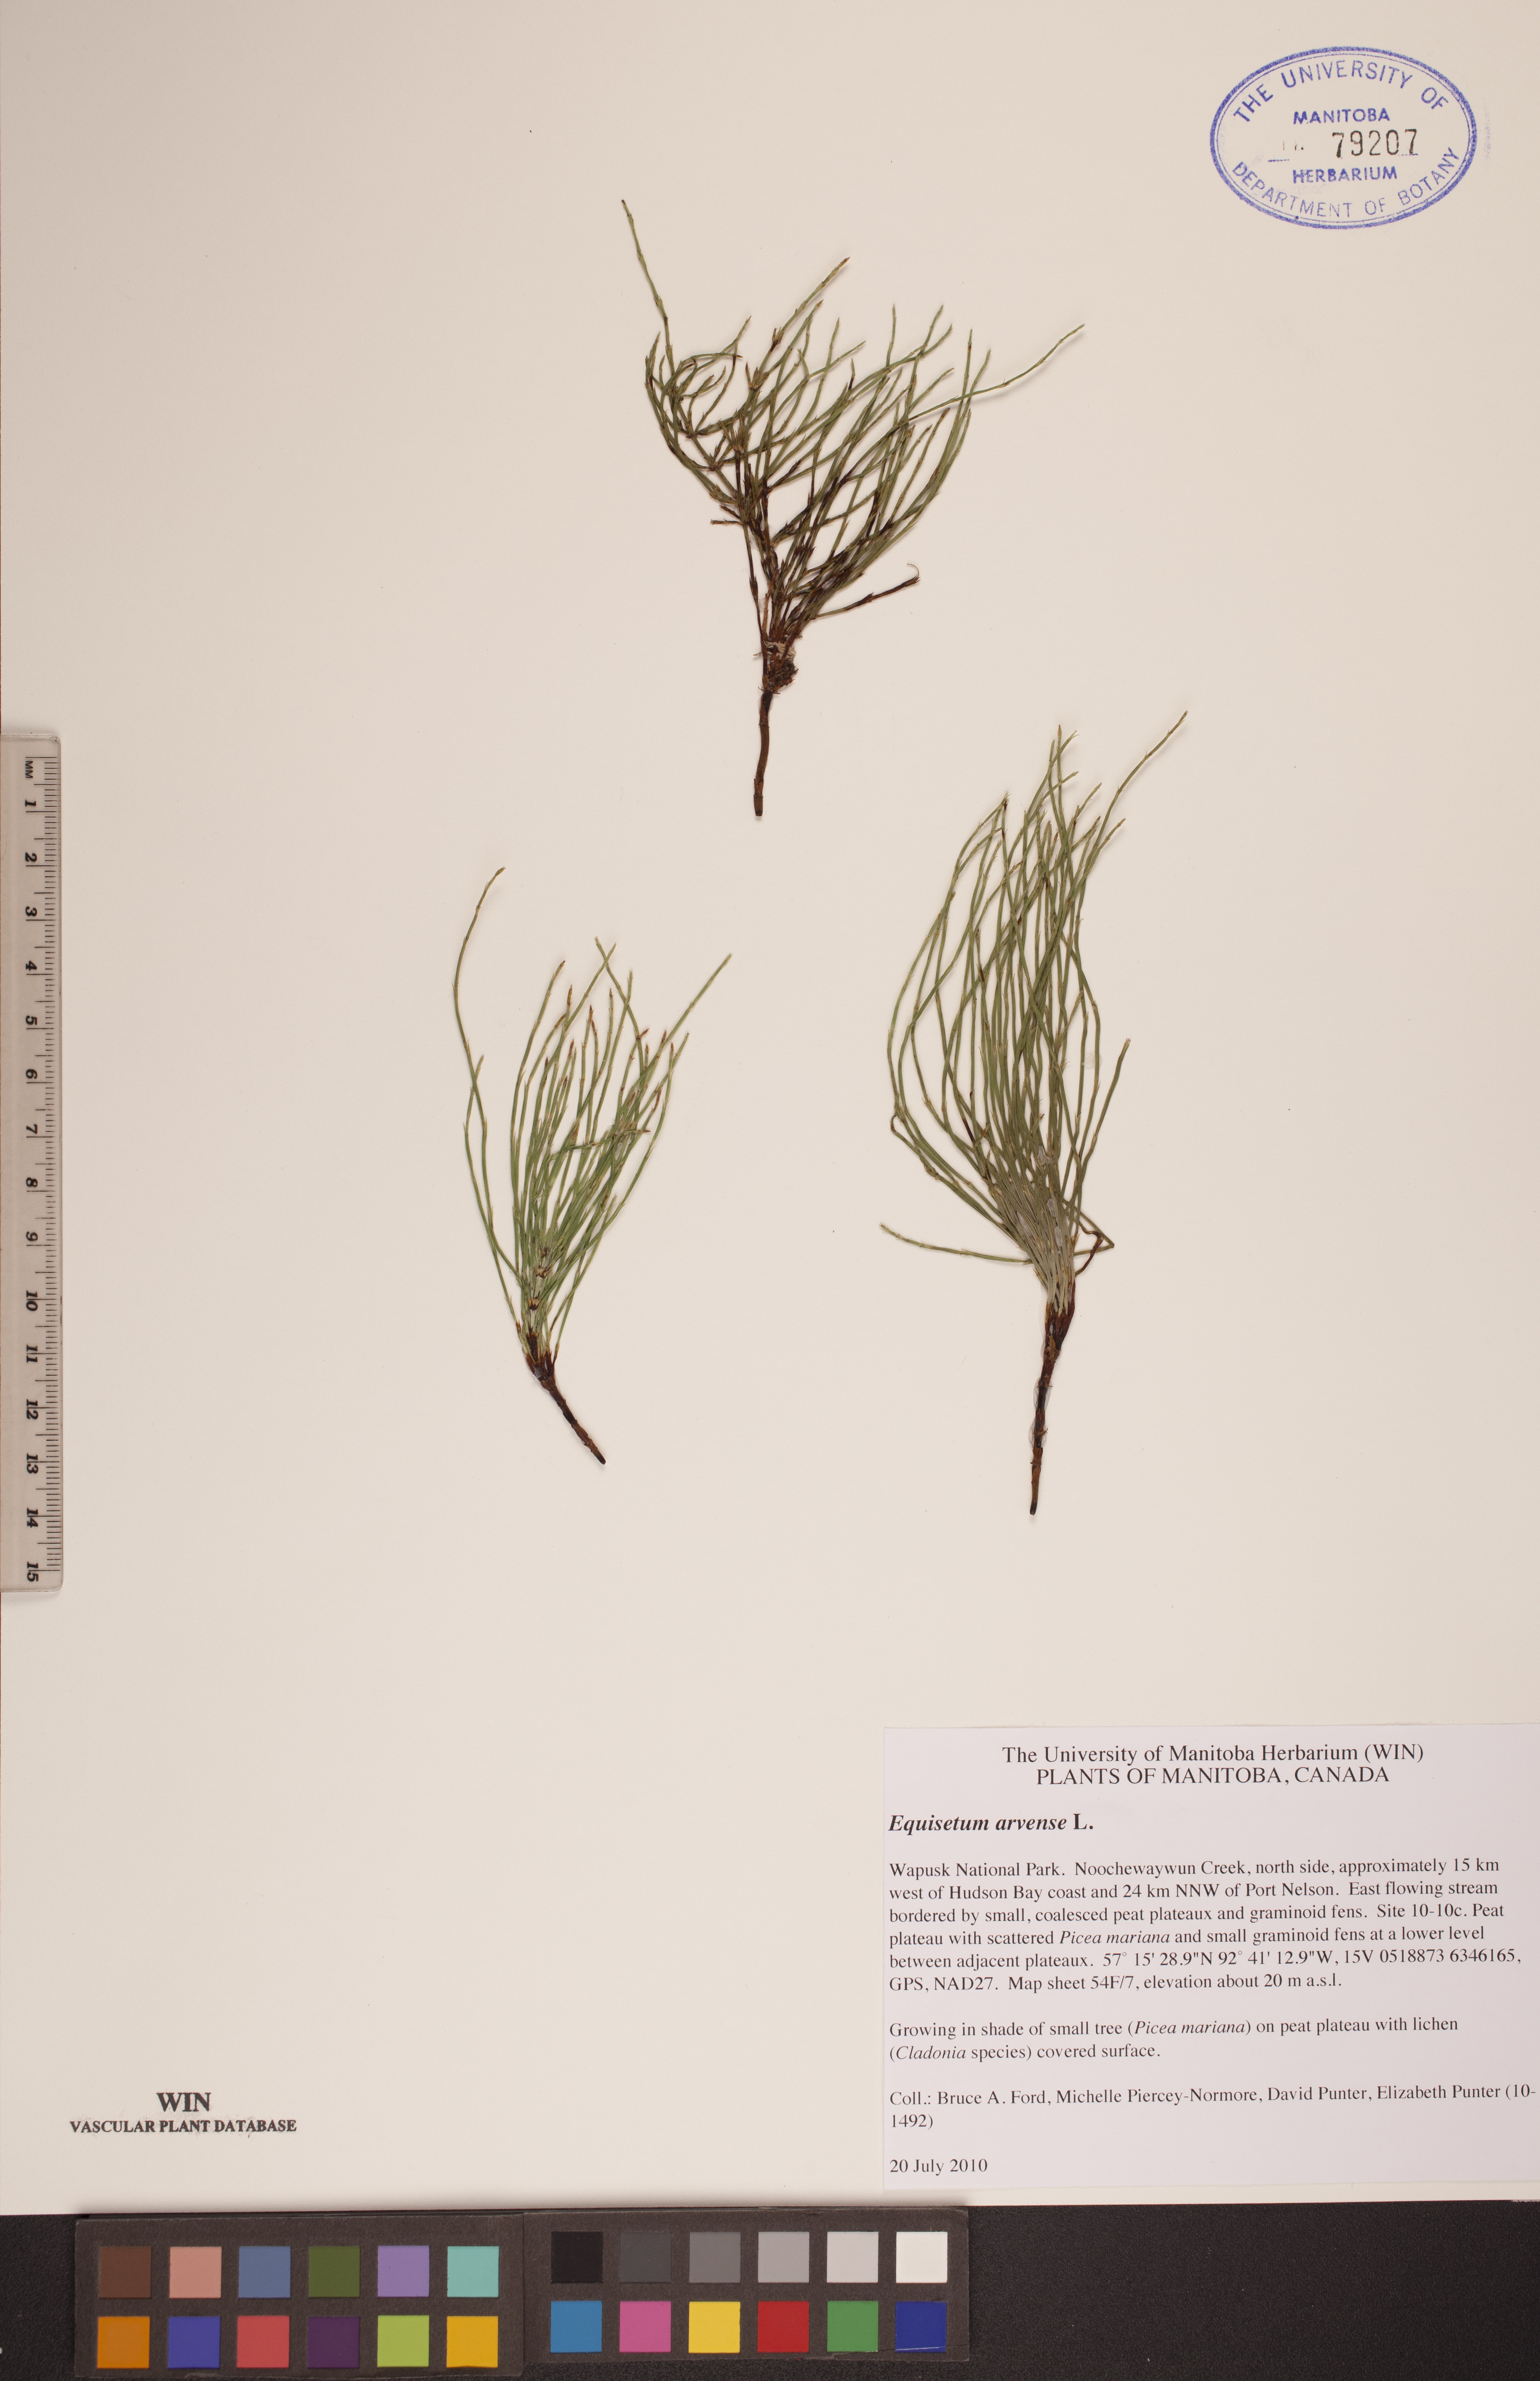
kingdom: Plantae
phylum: Tracheophyta
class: Polypodiopsida
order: Equisetales
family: Equisetaceae
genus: Equisetum
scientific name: Equisetum arvense
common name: Field horsetail
